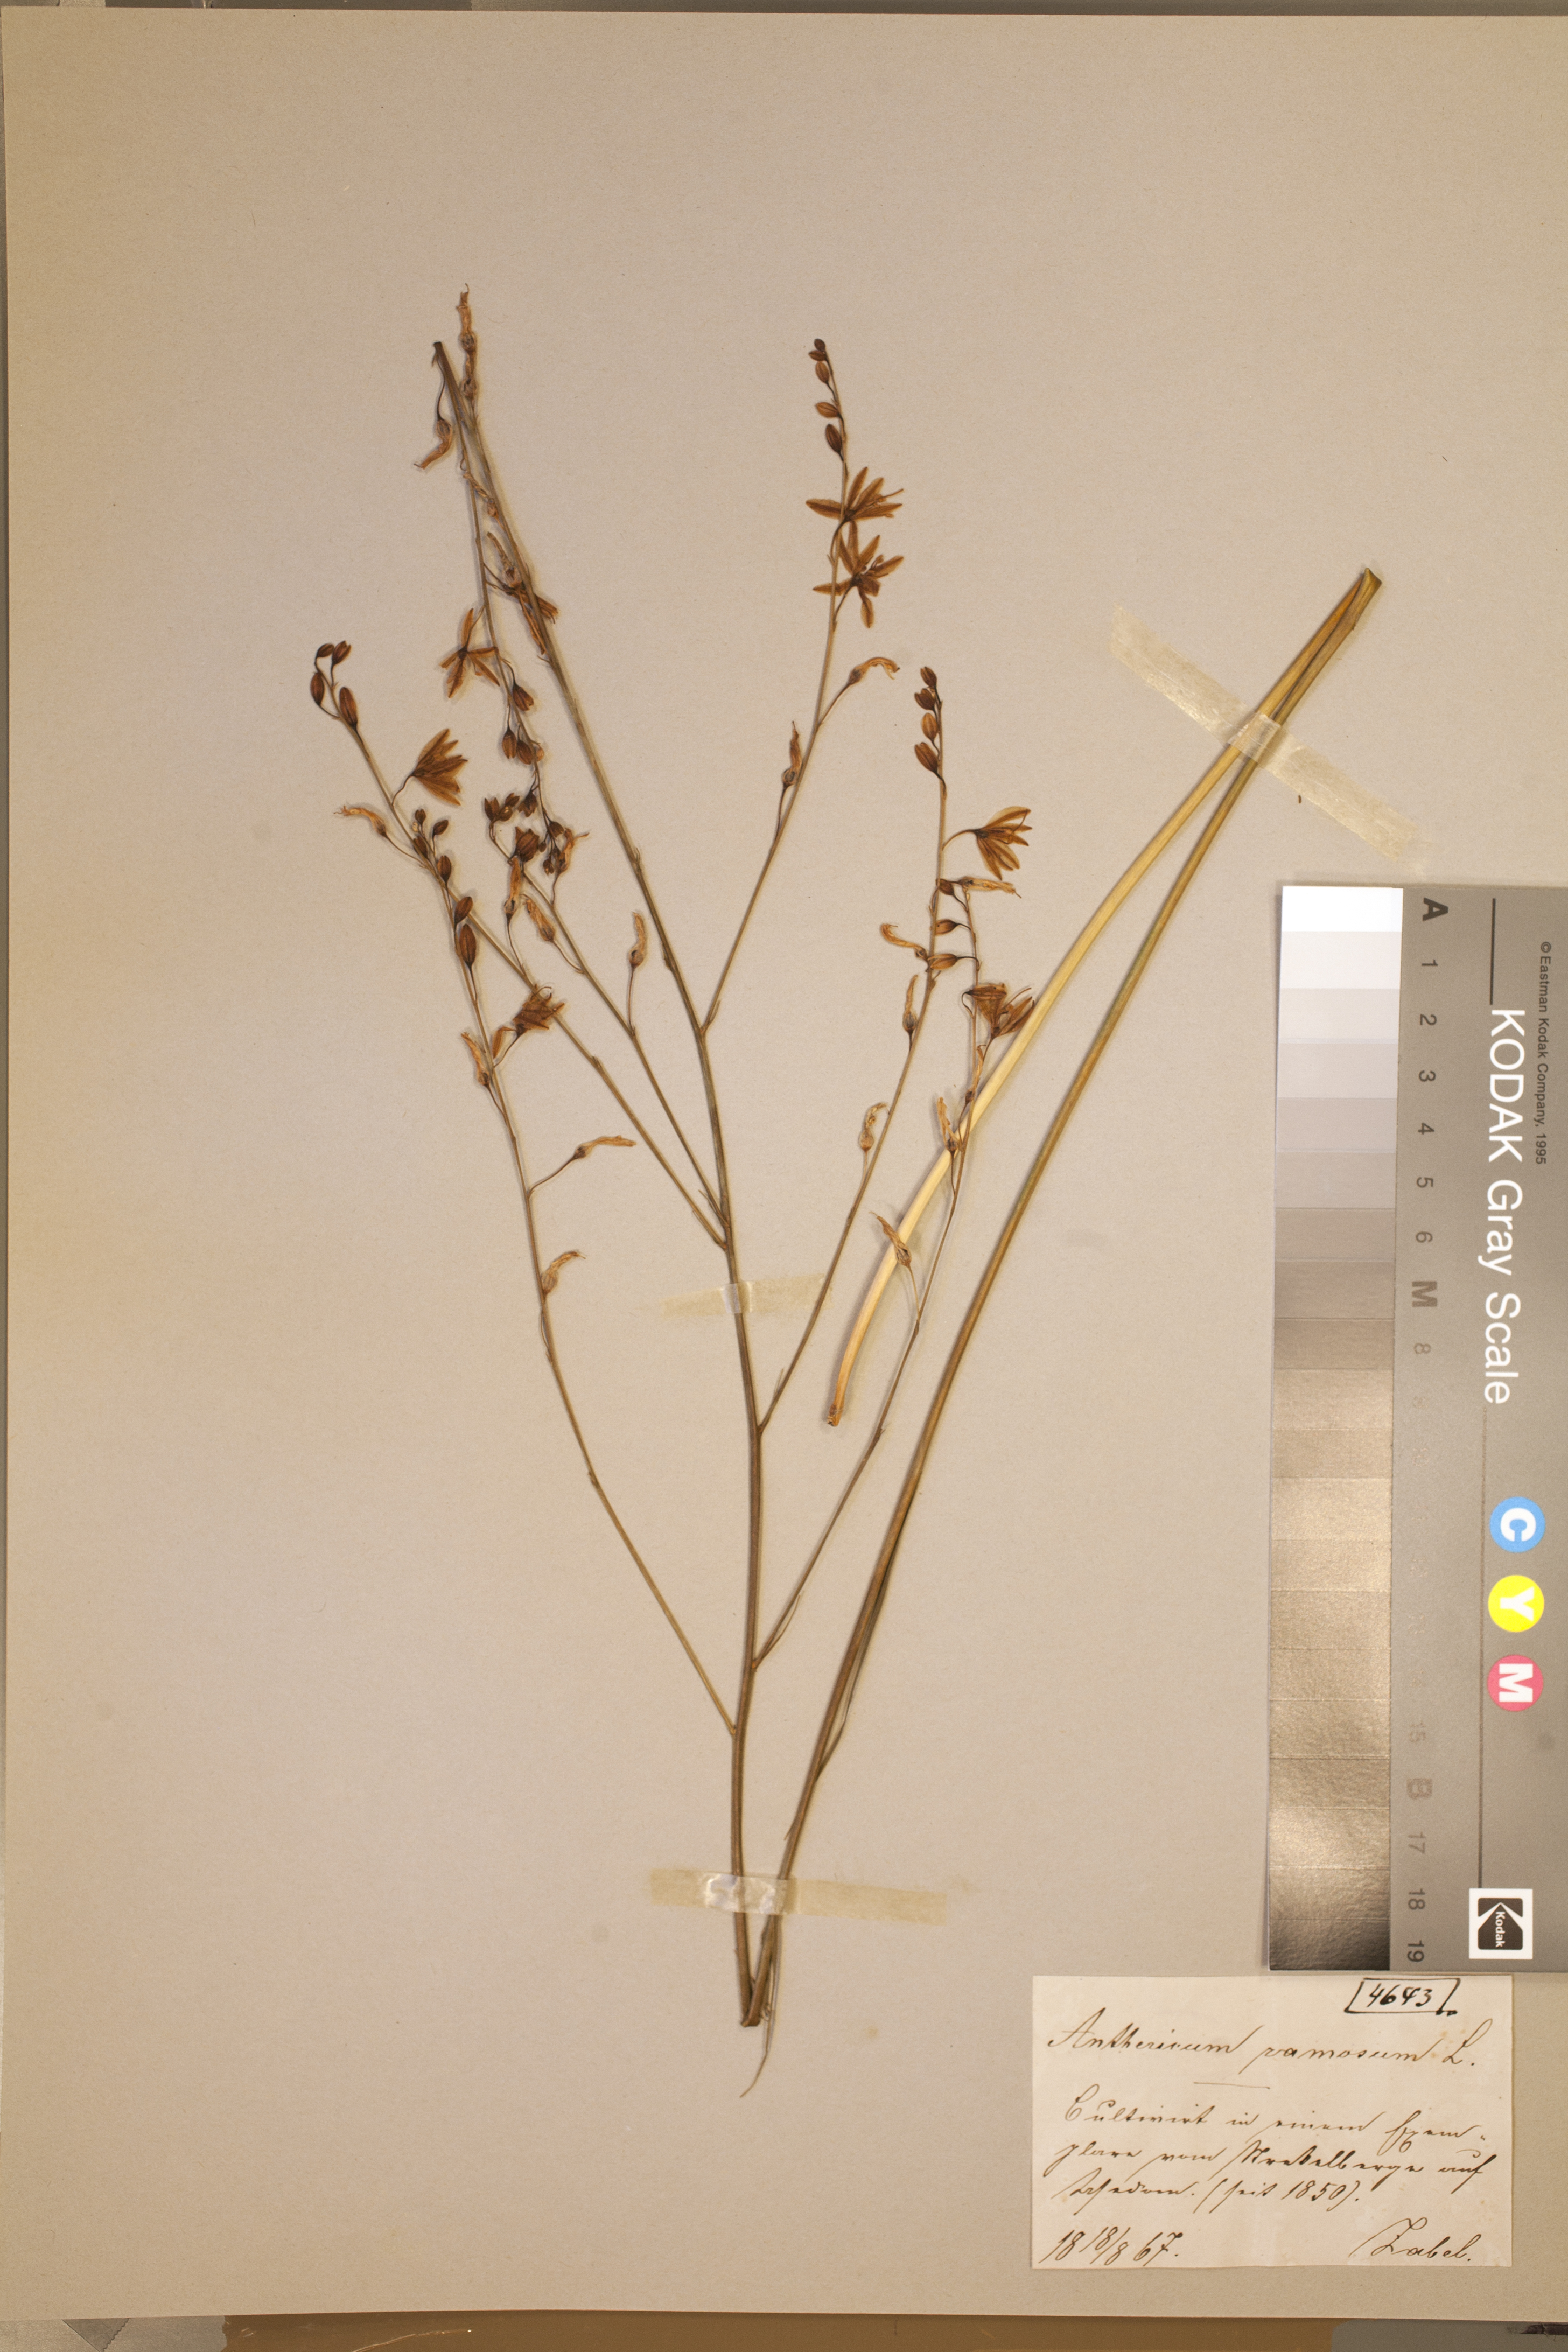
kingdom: Plantae
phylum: Tracheophyta
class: Liliopsida
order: Asparagales
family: Asparagaceae
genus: Anthericum
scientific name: Anthericum ramosum
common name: Branched st. bernard's-lily
